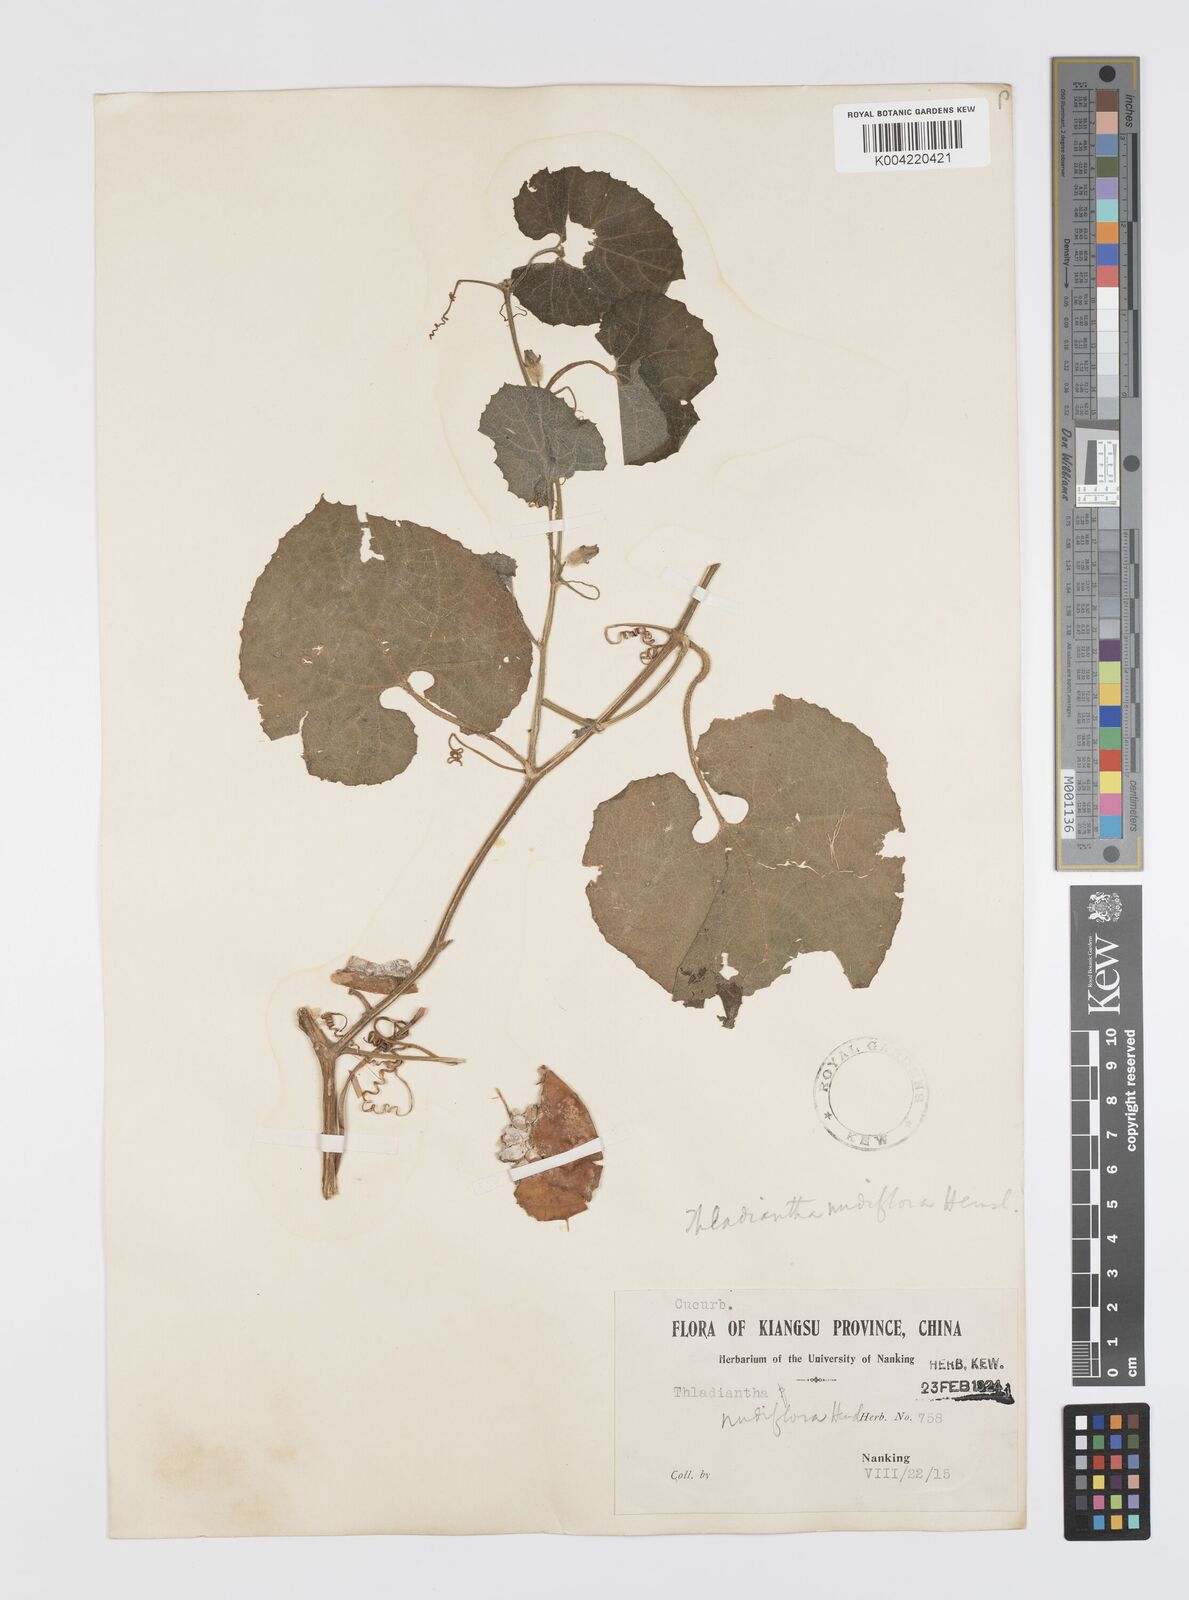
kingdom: Plantae
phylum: Tracheophyta
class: Magnoliopsida
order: Cucurbitales
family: Cucurbitaceae
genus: Thladiantha
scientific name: Thladiantha nudiflora
